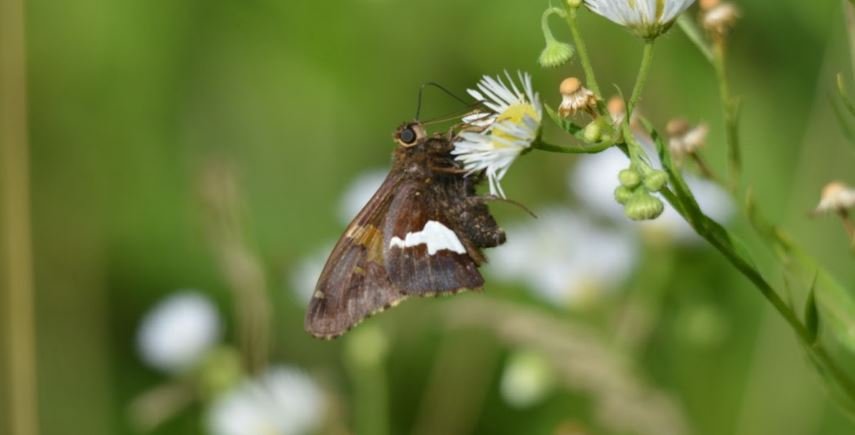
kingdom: Animalia
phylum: Arthropoda
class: Insecta
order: Lepidoptera
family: Hesperiidae
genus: Epargyreus
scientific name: Epargyreus clarus
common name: Silver-spotted Skipper
